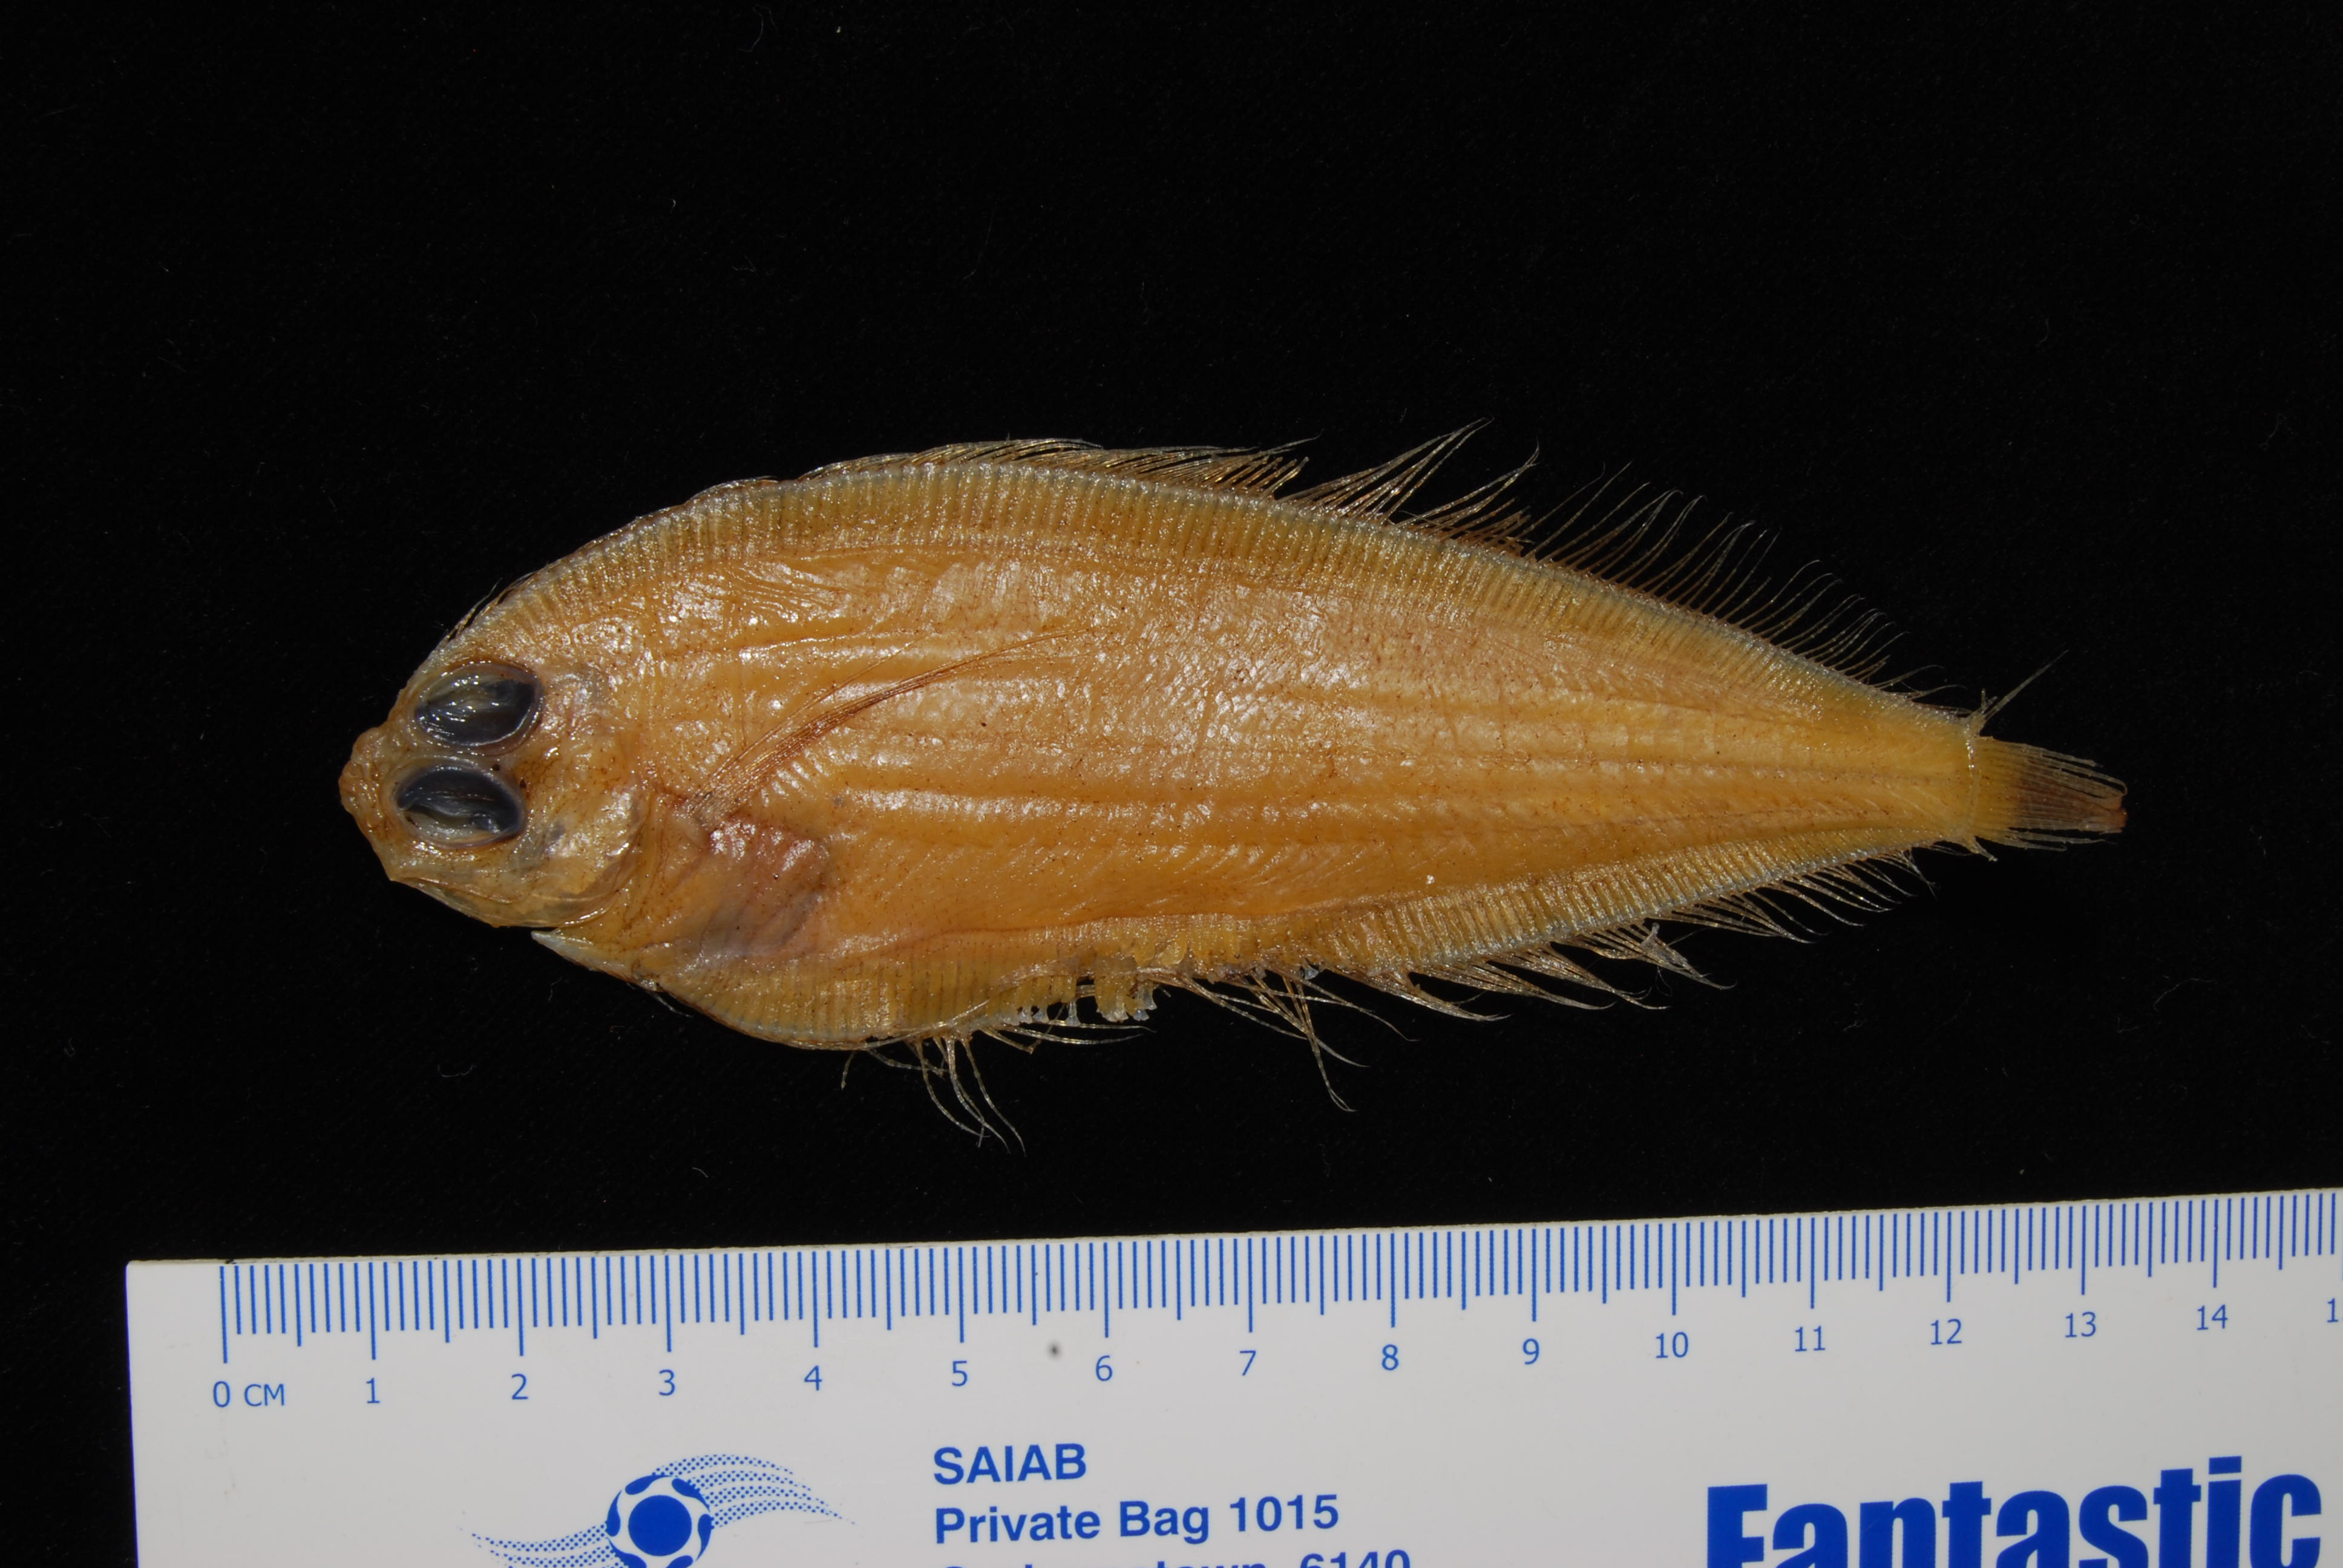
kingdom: Animalia
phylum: Chordata
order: Pleuronectiformes
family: Bothidae
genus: Laeops
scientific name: Laeops pectoralis
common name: Longarm flounder
